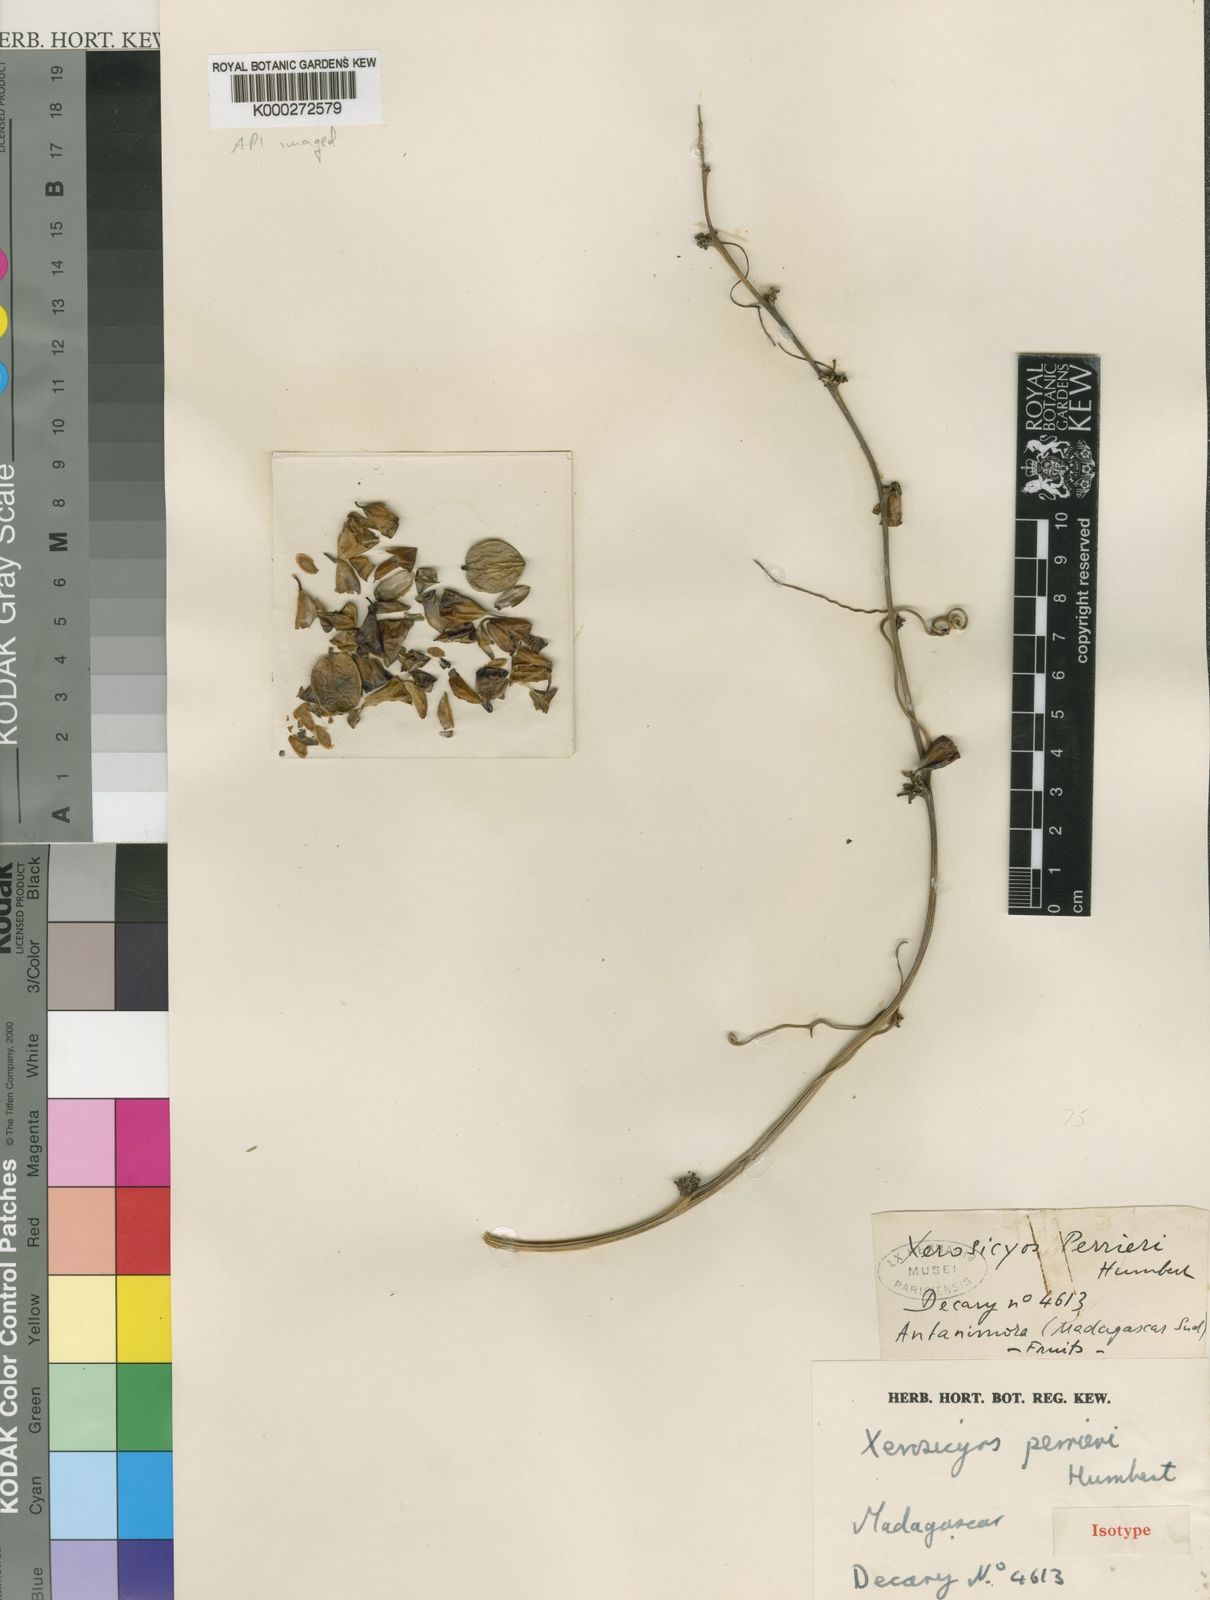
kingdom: Plantae
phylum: Tracheophyta
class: Magnoliopsida
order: Cucurbitales
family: Cucurbitaceae
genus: Xerosicyos
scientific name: Xerosicyos perrieri
